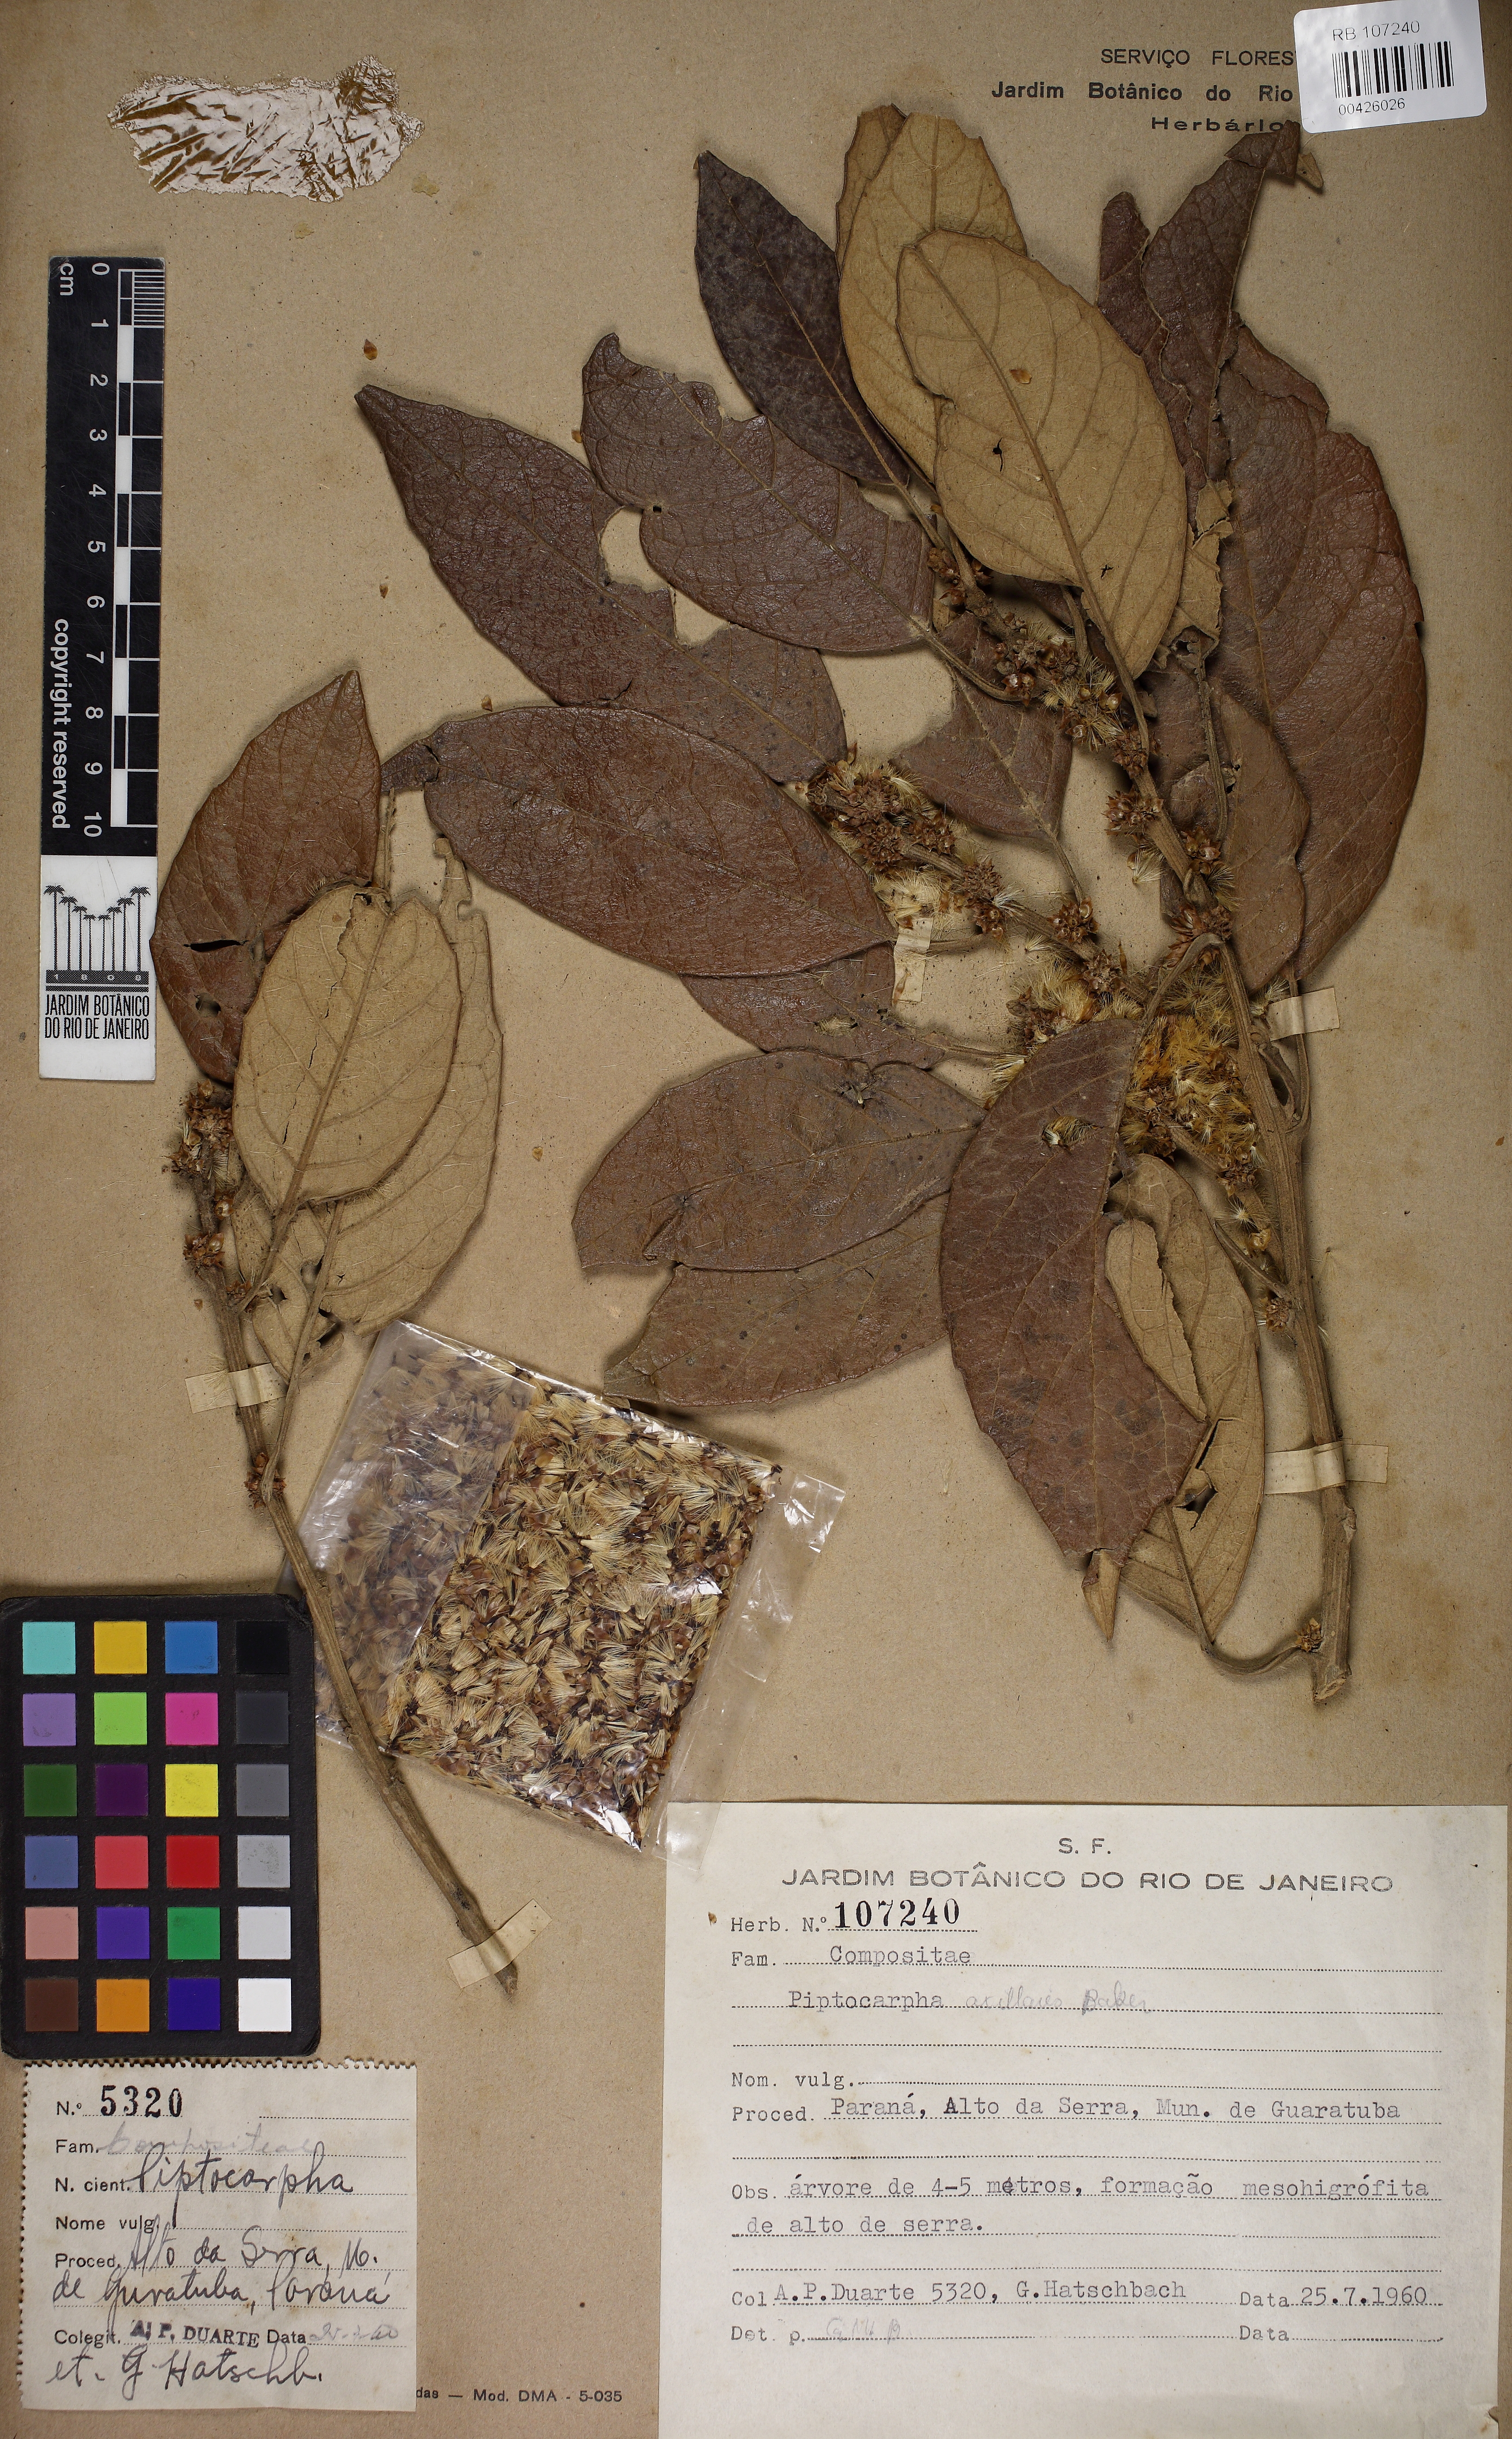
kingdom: Plantae
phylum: Tracheophyta
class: Magnoliopsida
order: Asterales
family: Asteraceae
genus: Piptocarpha
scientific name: Piptocarpha axillaris
